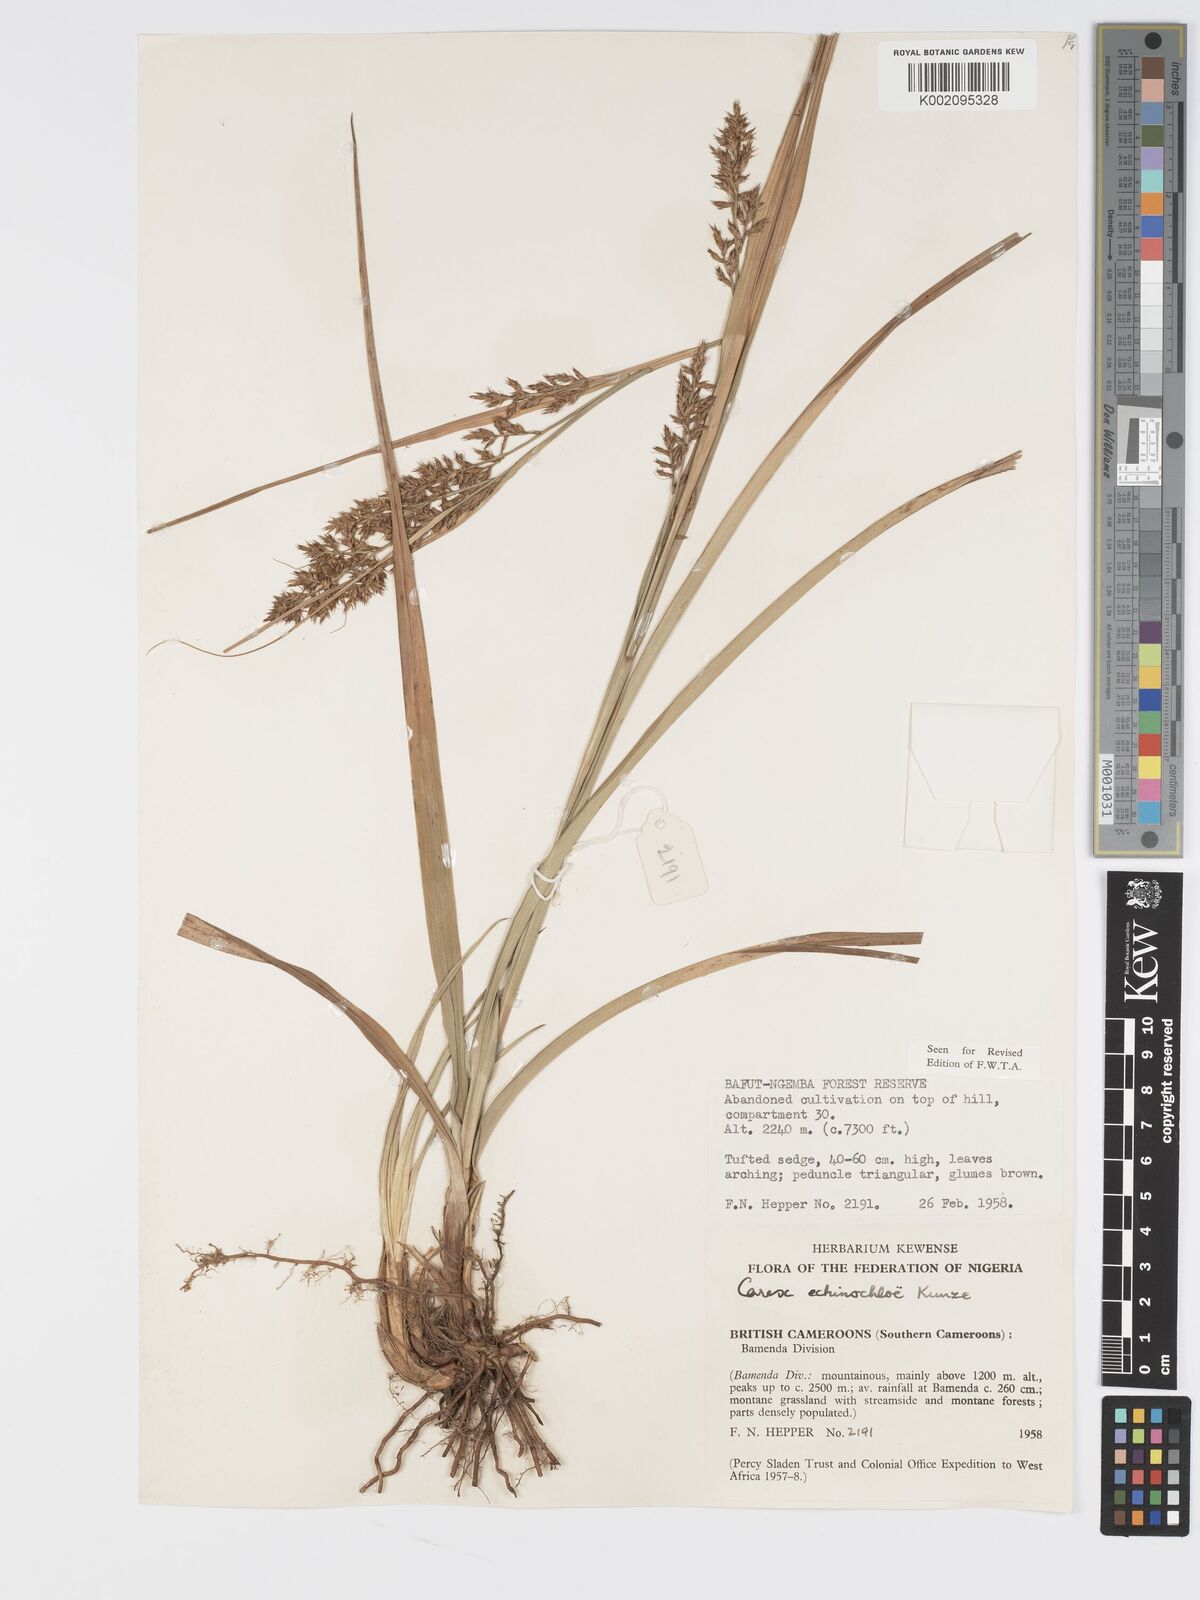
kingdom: Plantae
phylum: Tracheophyta
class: Liliopsida
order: Poales
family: Cyperaceae
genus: Carex
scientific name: Carex echinochloe
